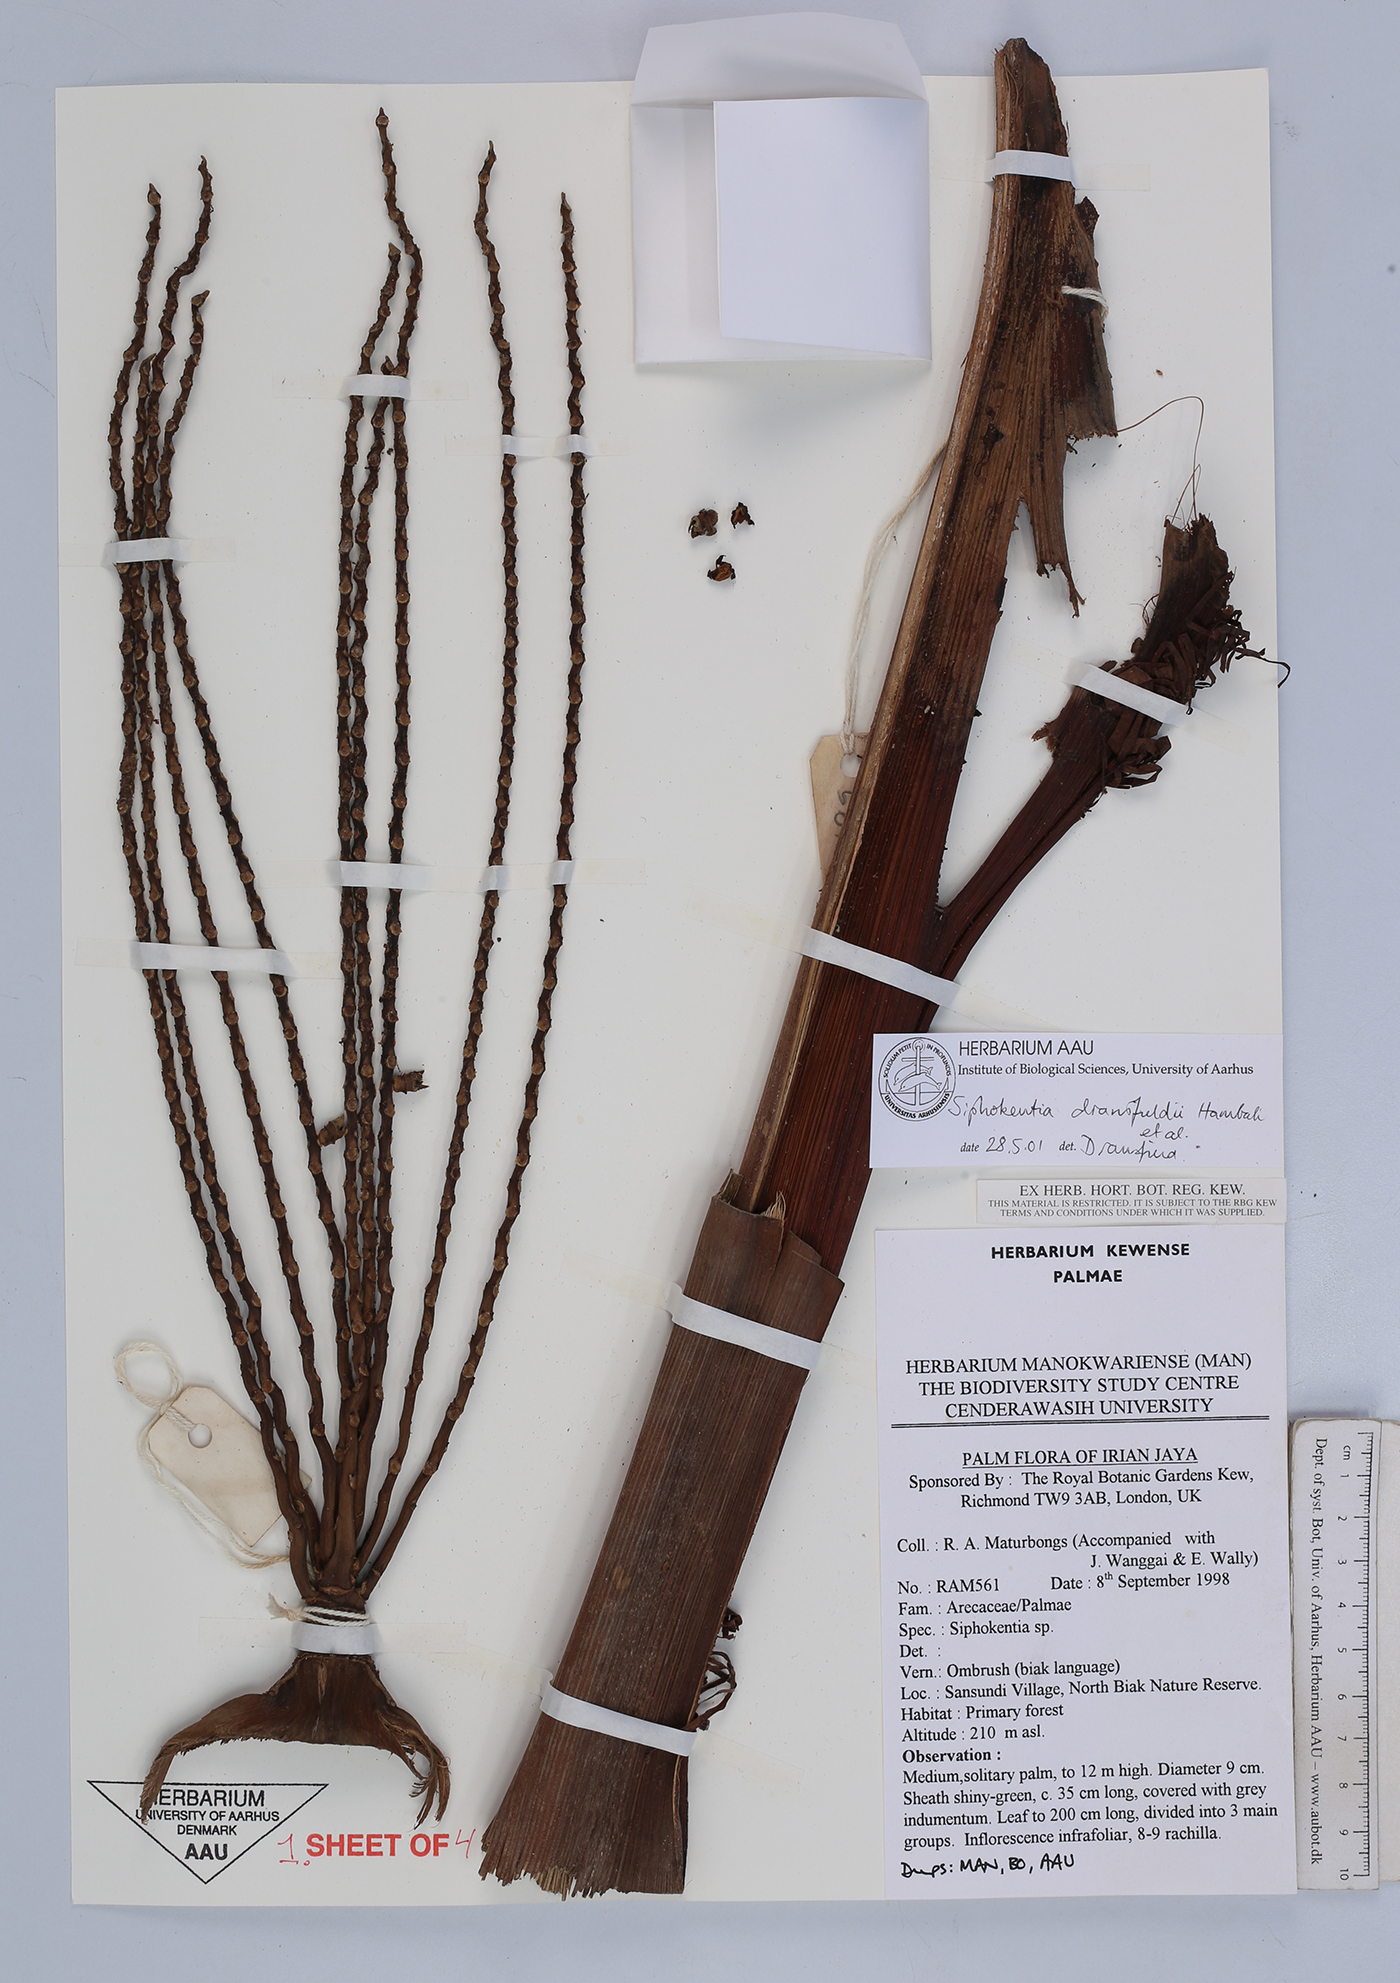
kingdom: Plantae
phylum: Tracheophyta
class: Liliopsida
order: Arecales
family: Arecaceae
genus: Hydriastele
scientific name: Hydriastele dransfieldii
